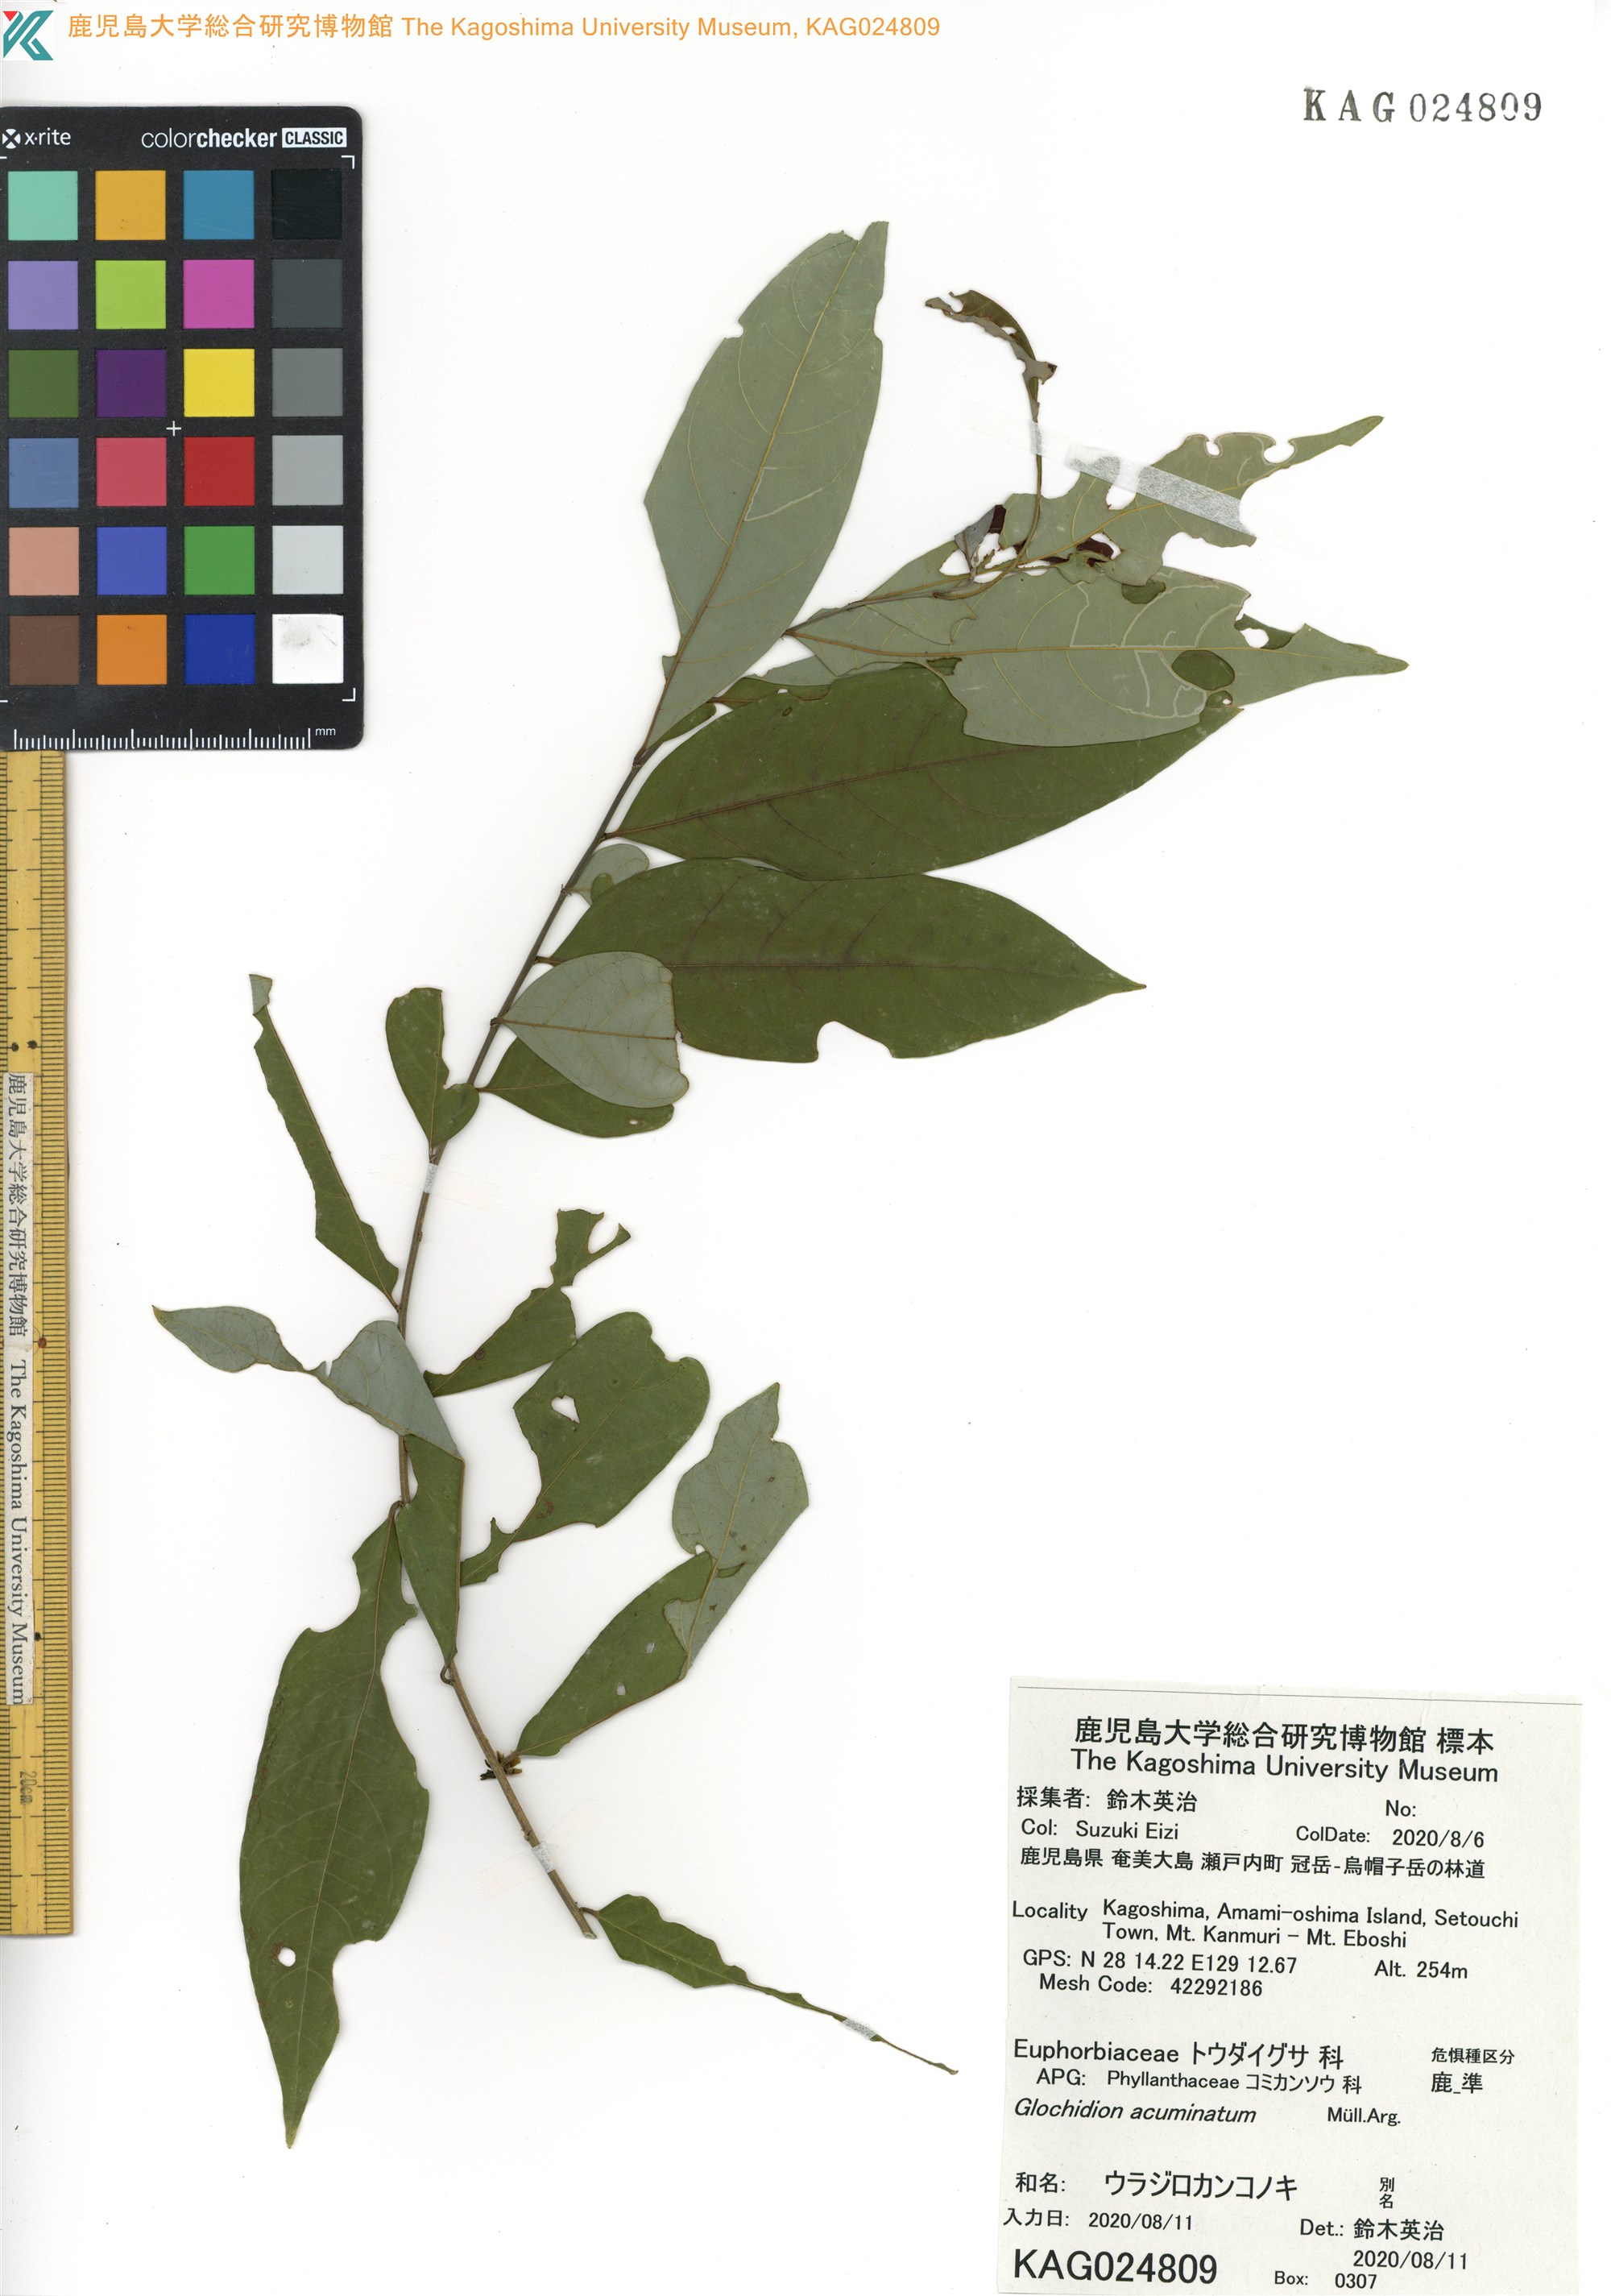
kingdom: Plantae
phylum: Tracheophyta
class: Magnoliopsida
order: Malpighiales
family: Phyllanthaceae
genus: Glochidion
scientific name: Glochidion acuminatum
